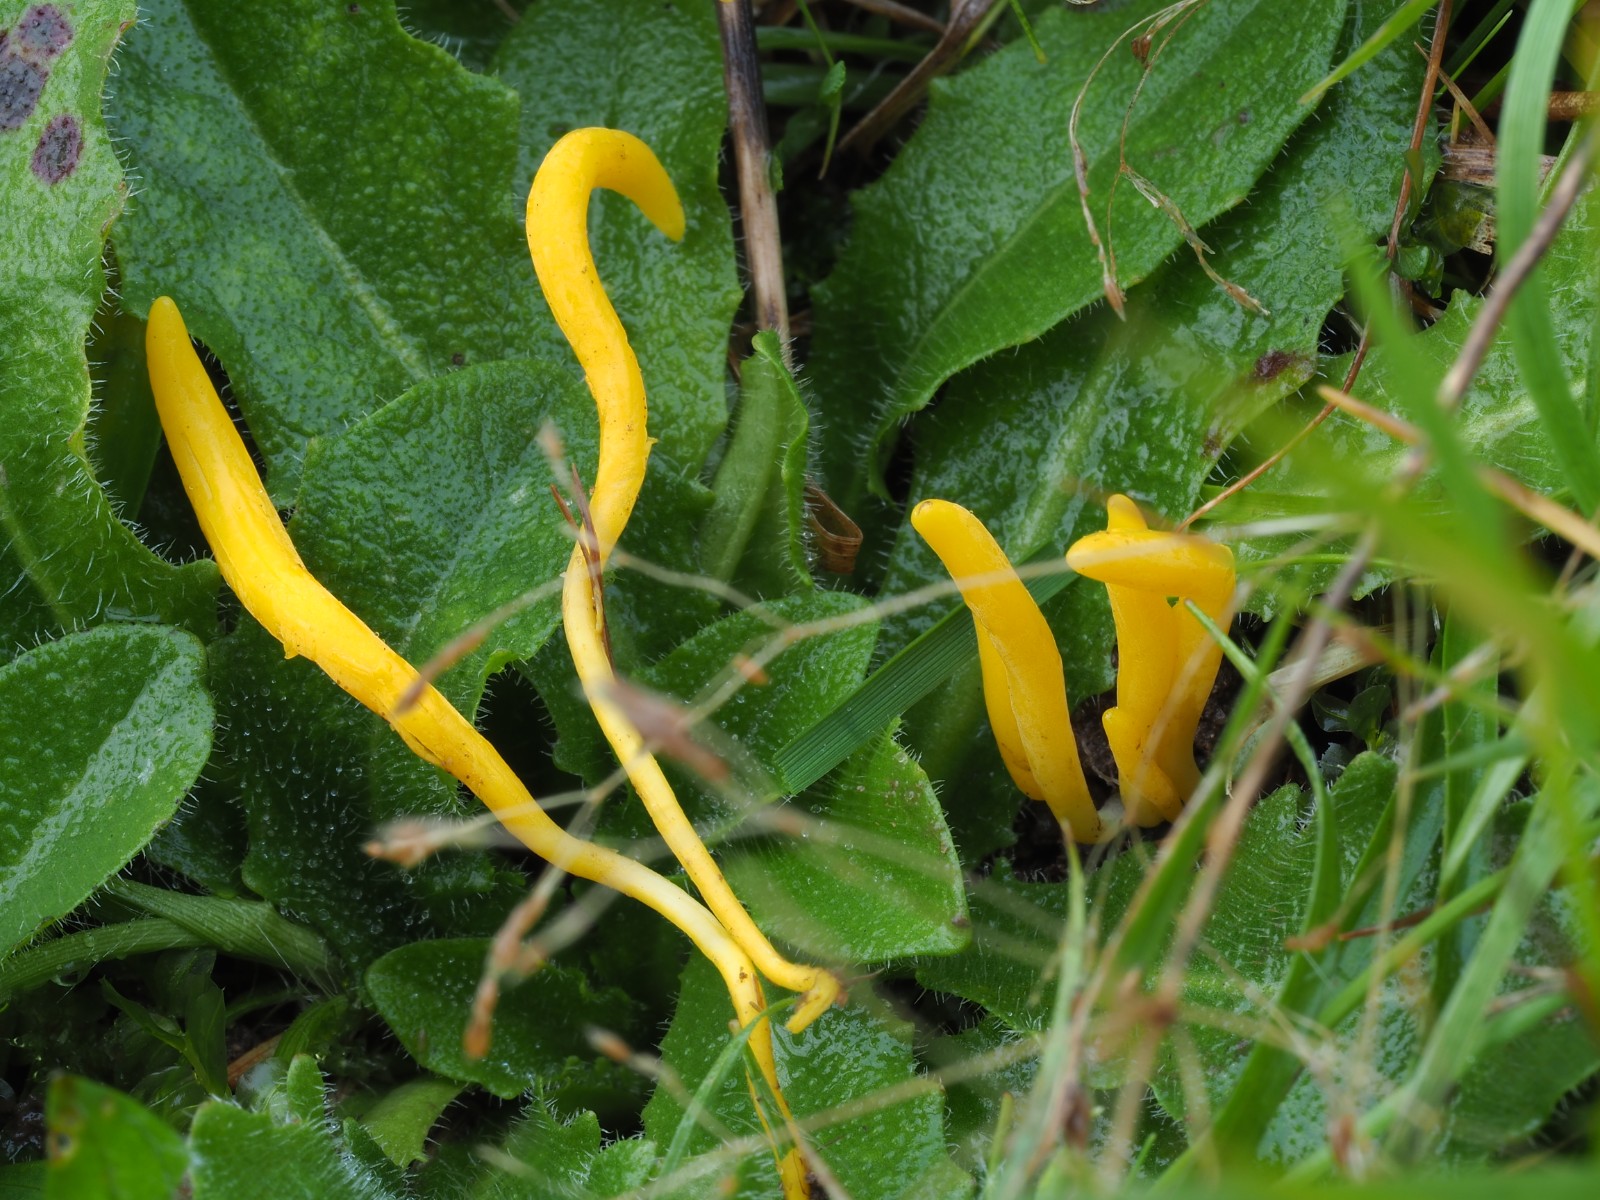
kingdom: Fungi
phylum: Basidiomycota
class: Agaricomycetes
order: Agaricales
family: Clavariaceae
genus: Clavulinopsis
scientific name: Clavulinopsis helvola
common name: orangegul køllesvamp
